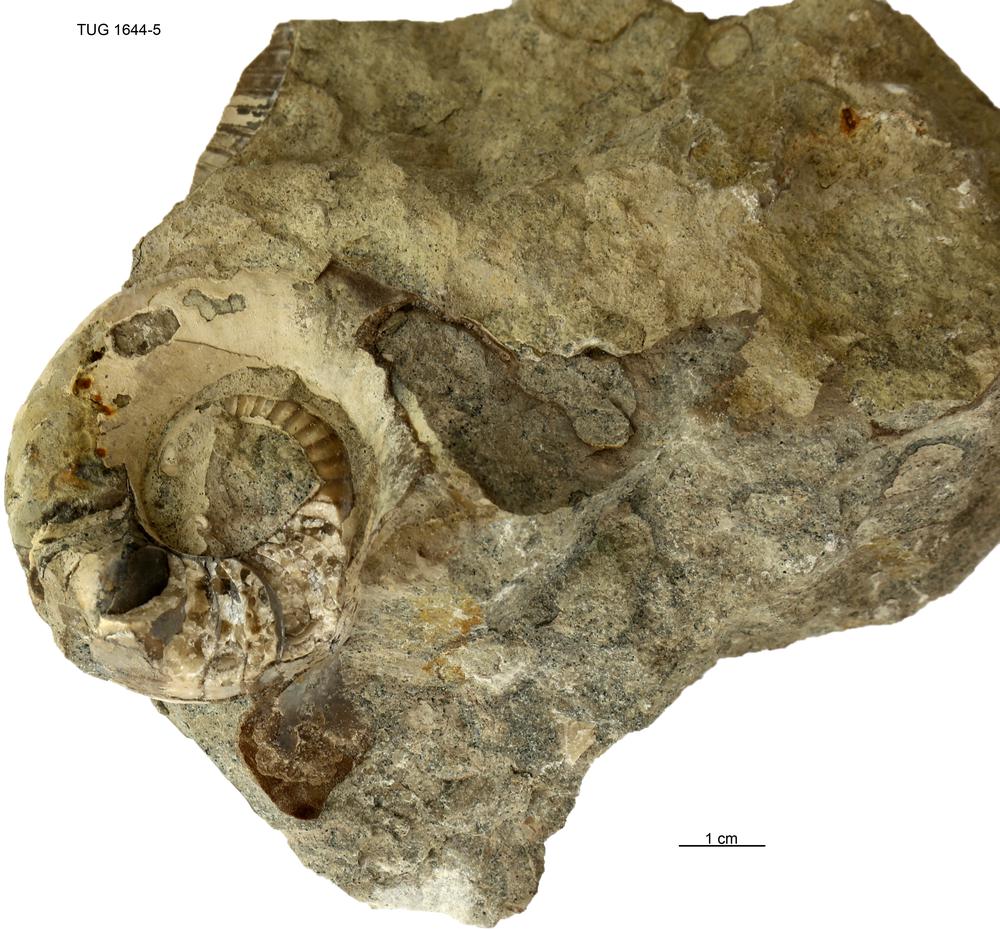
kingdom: Animalia
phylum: Mollusca
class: Cephalopoda
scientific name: Cephalopoda
